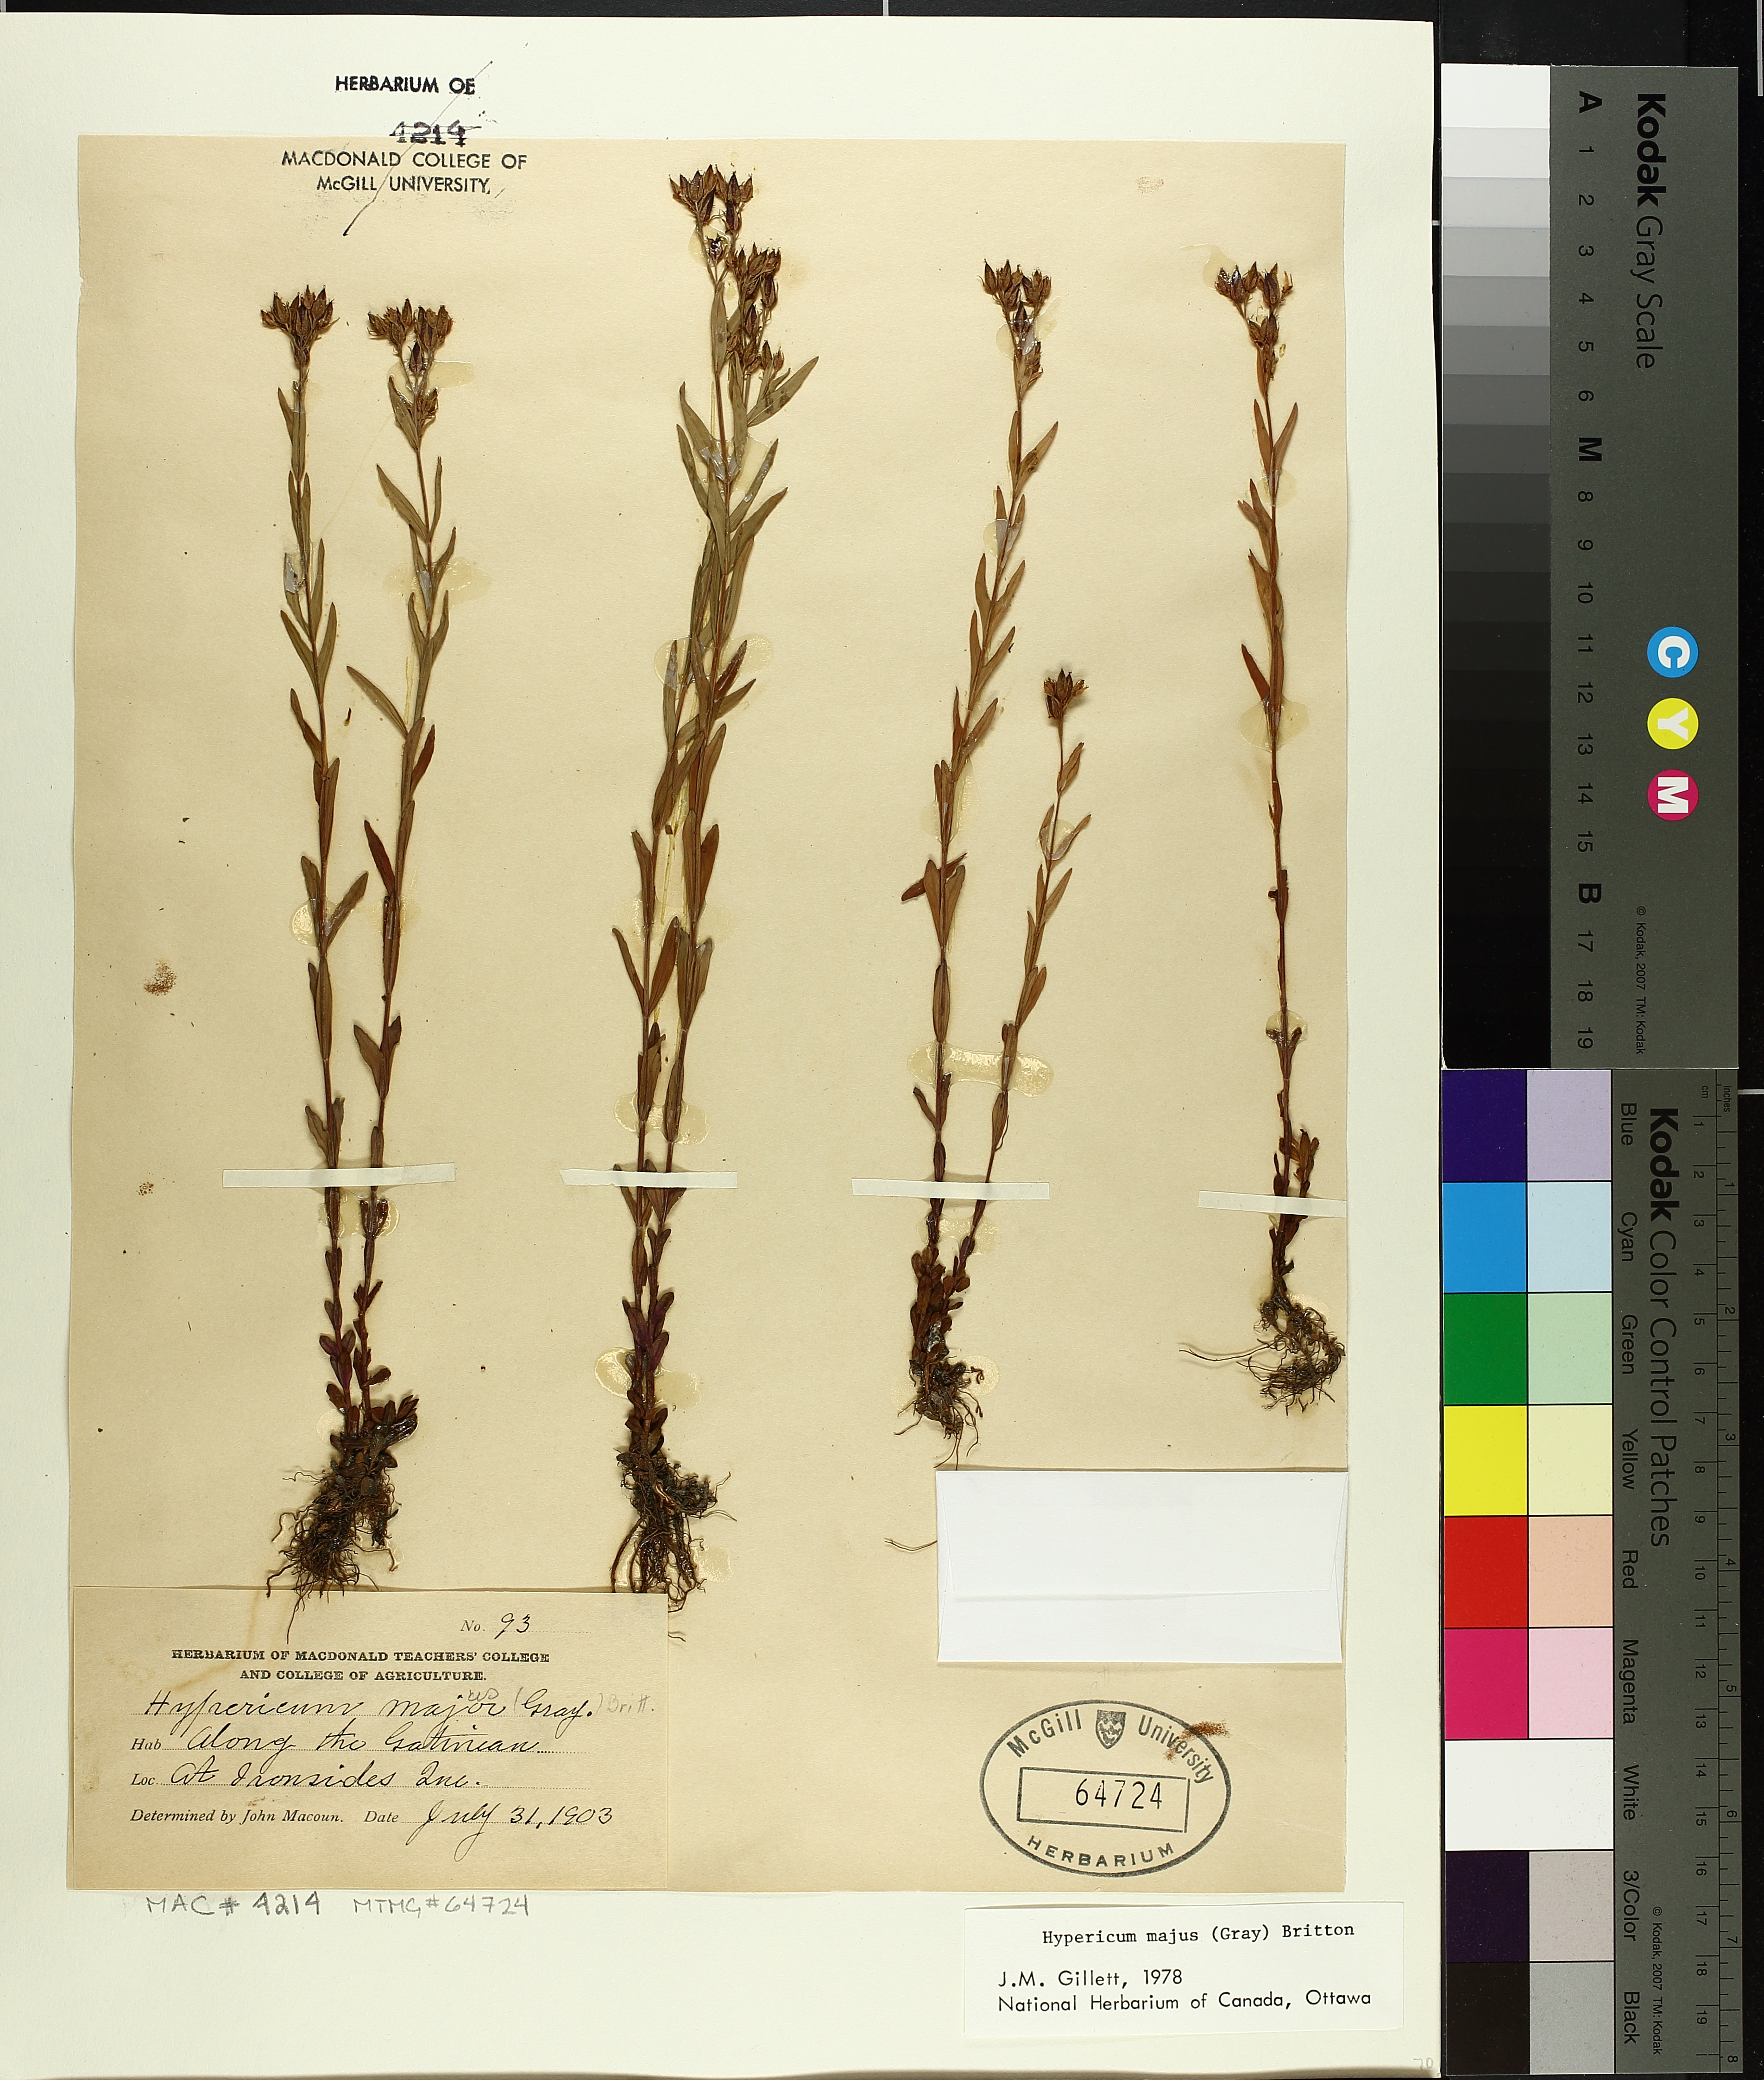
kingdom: Plantae
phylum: Tracheophyta
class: Magnoliopsida
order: Malpighiales
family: Hypericaceae
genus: Hypericum
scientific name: Hypericum majus
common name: Greater canadian st. john's-wort
